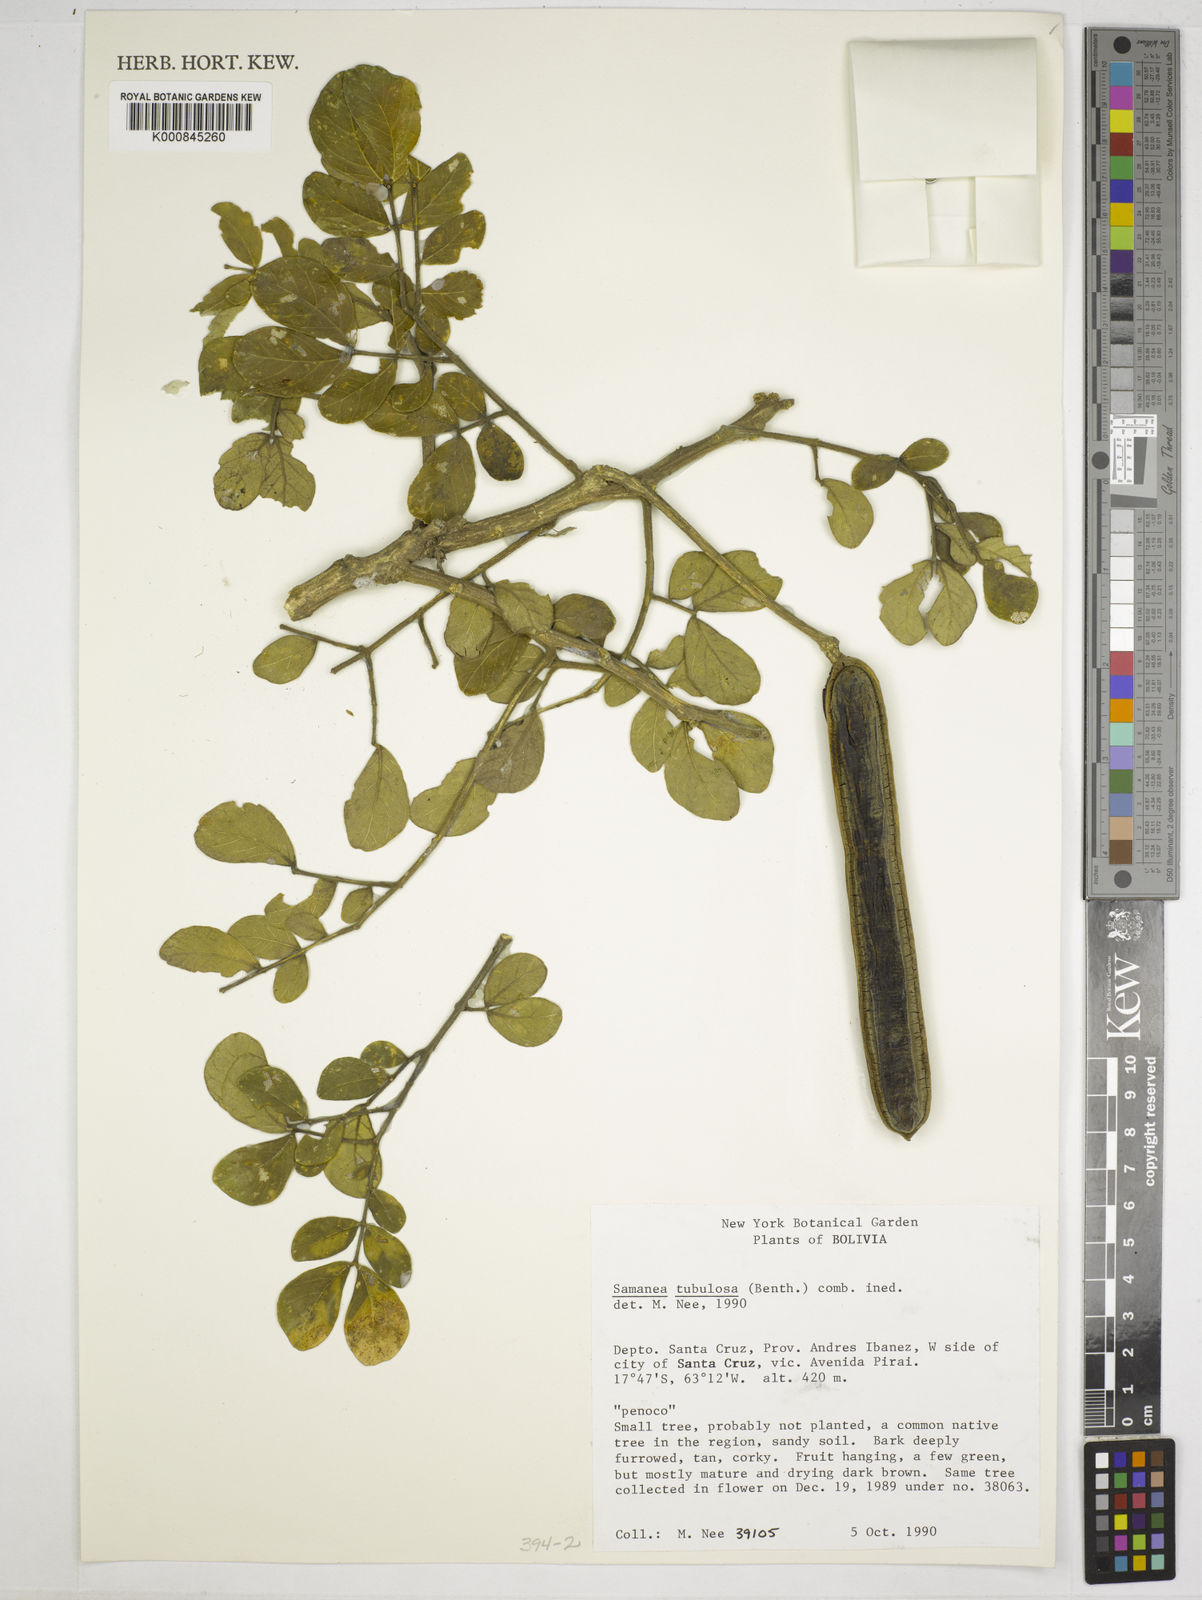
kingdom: Plantae
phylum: Tracheophyta
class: Magnoliopsida
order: Fabales
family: Fabaceae
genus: Samanea
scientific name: Samanea tubulosa
